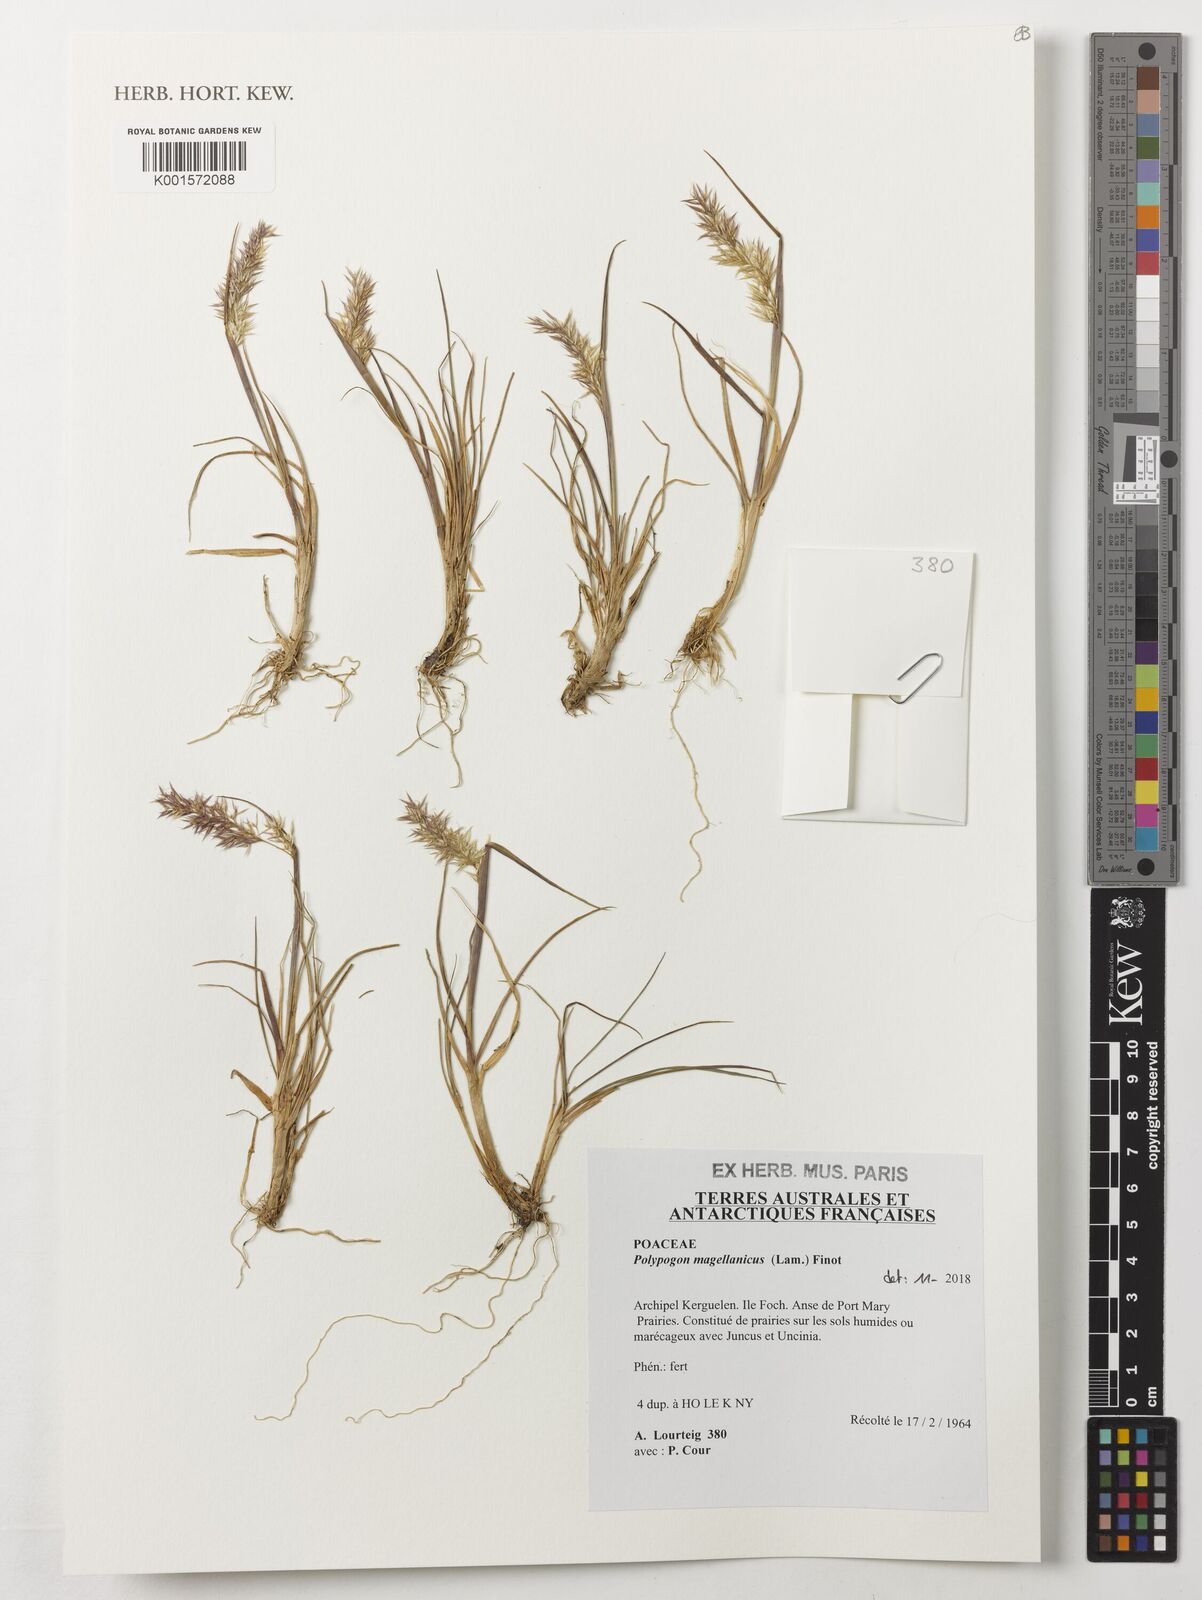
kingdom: Plantae
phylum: Tracheophyta
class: Liliopsida
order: Poales
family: Poaceae
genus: Polypogon
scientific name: Polypogon magellanicus
